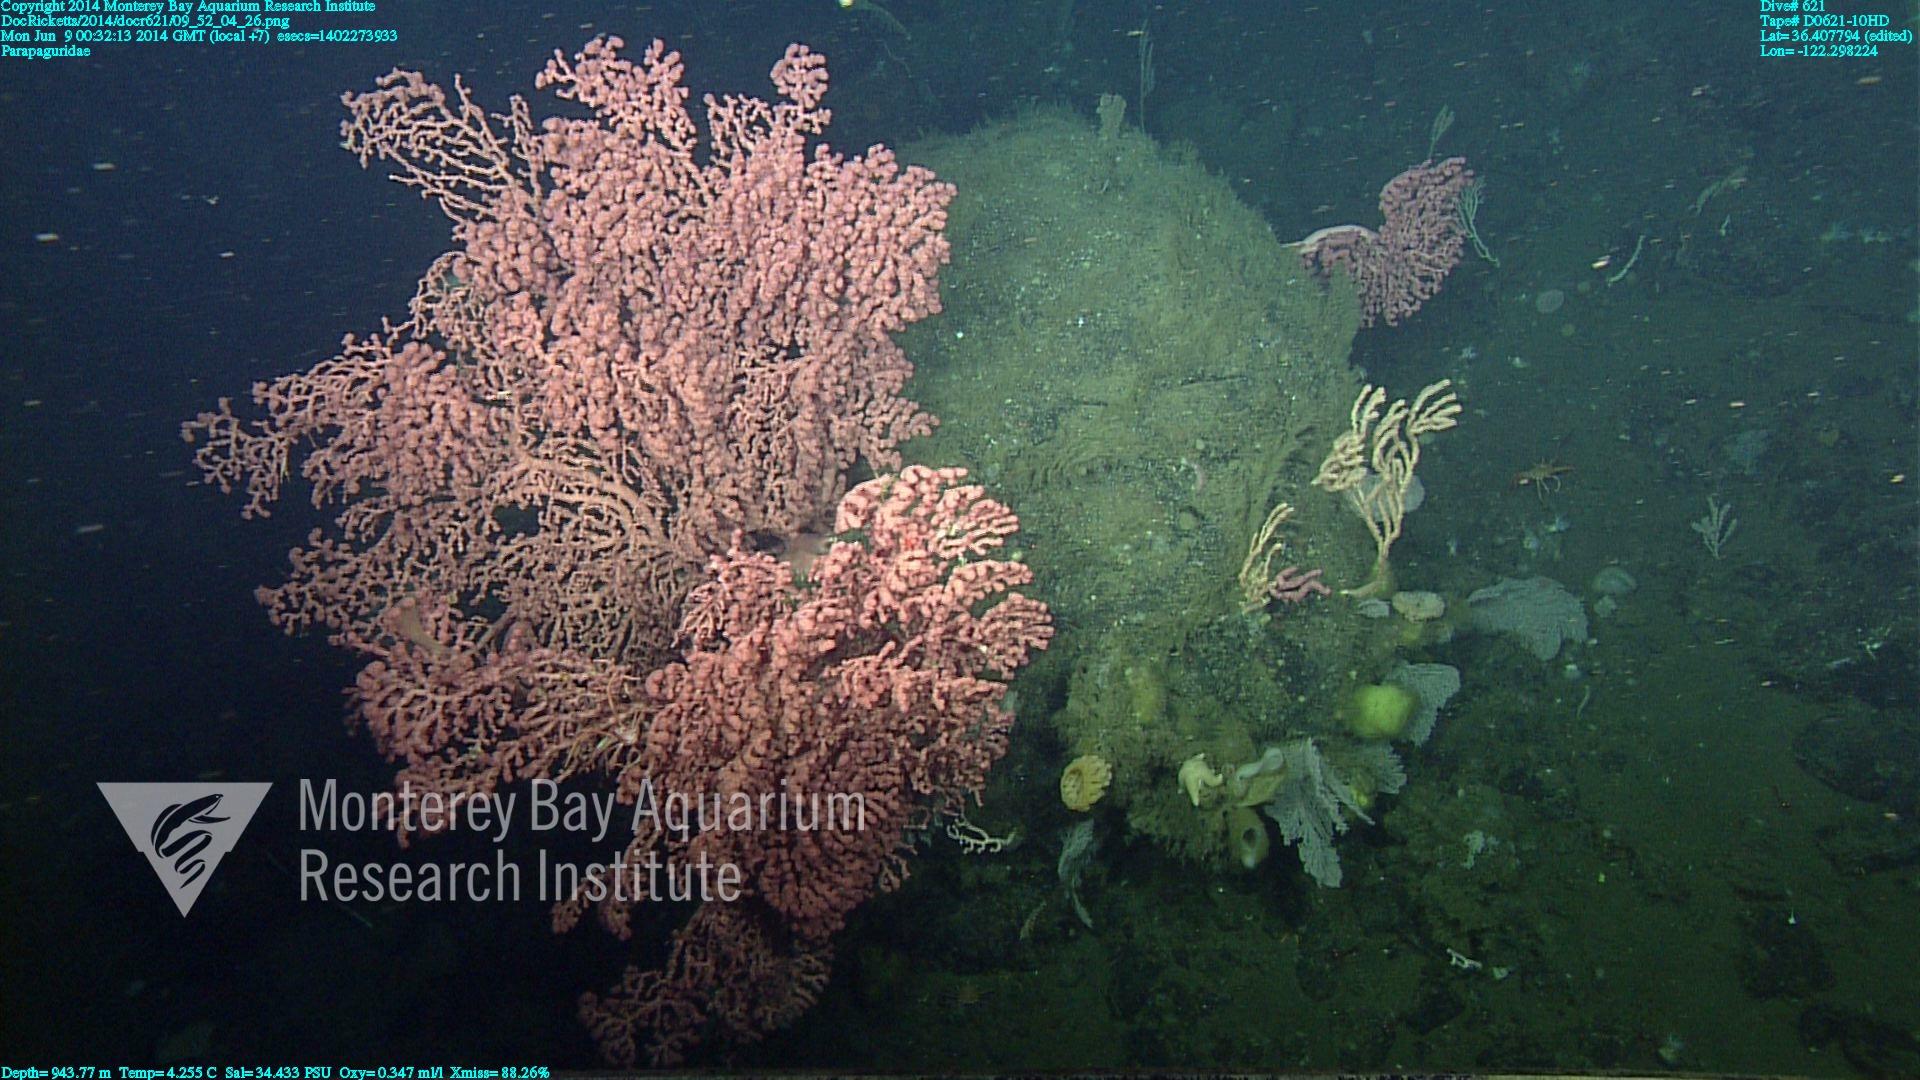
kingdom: Animalia
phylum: Cnidaria
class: Anthozoa
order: Scleralcyonacea
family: Coralliidae
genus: Paragorgia
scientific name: Paragorgia arborea
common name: Bubble gum coral
